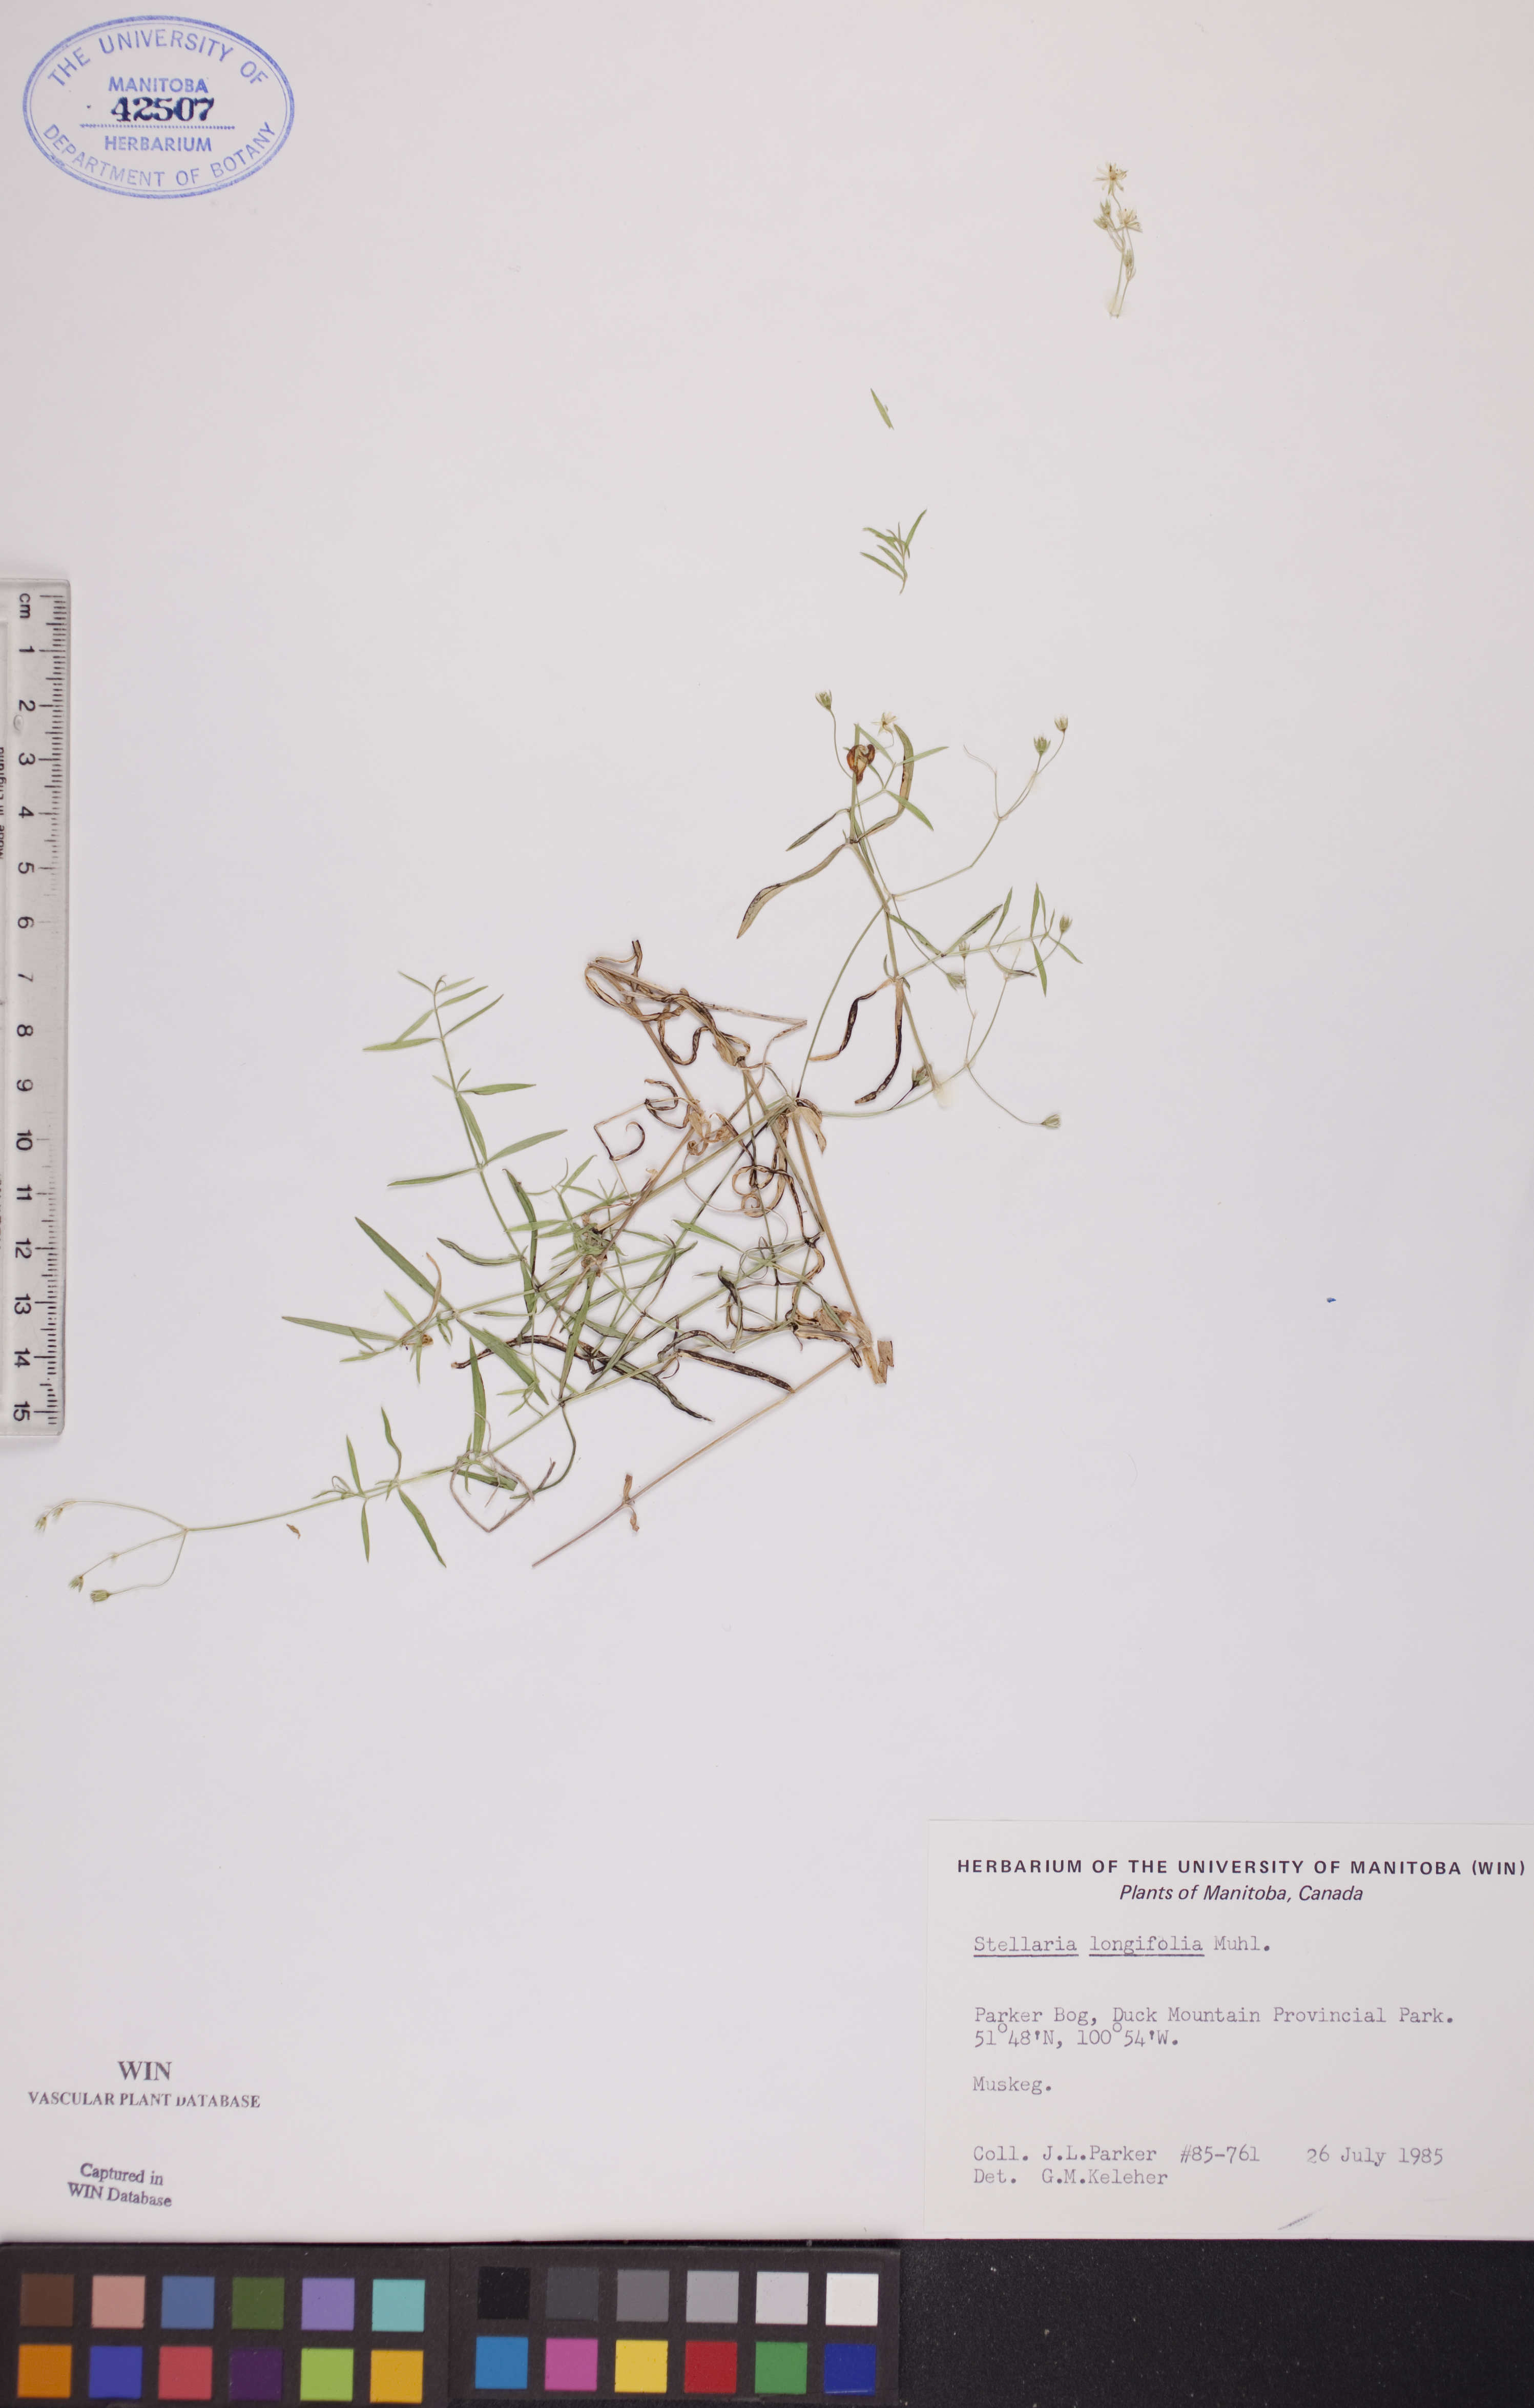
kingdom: Plantae
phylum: Tracheophyta
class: Magnoliopsida
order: Caryophyllales
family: Caryophyllaceae
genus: Stellaria
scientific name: Stellaria longifolia
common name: Long-leaved chickweed
